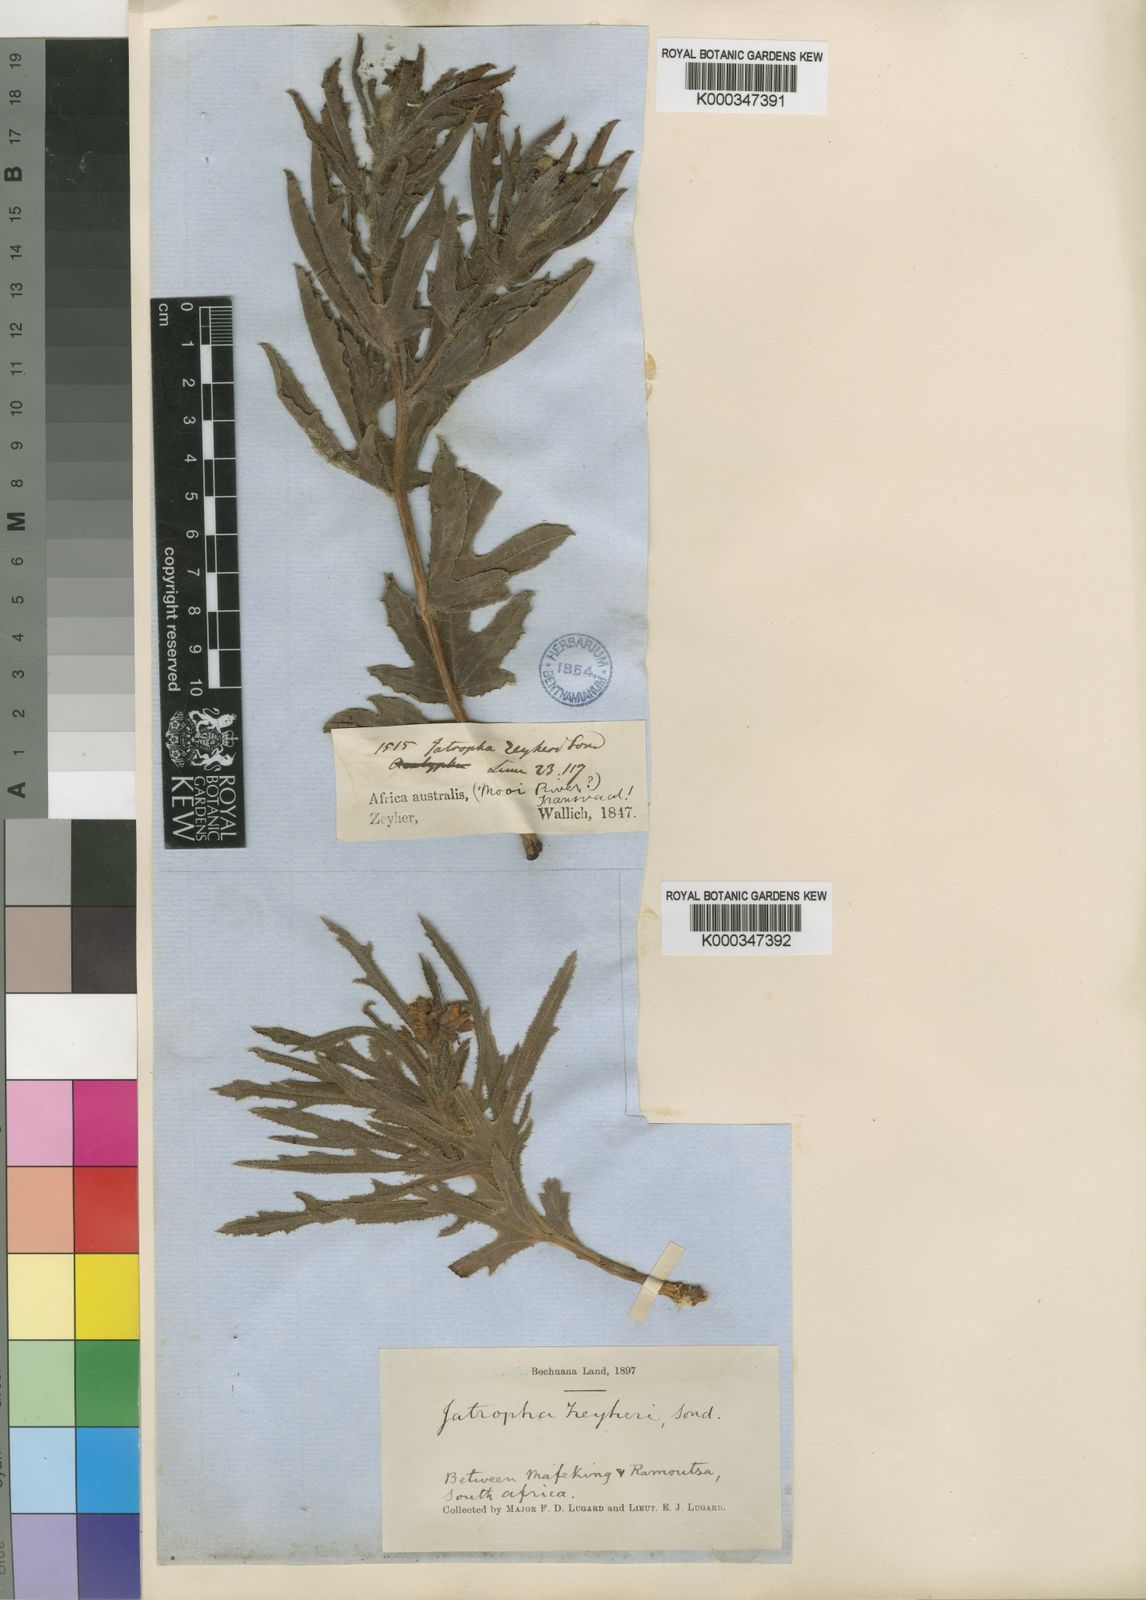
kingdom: Plantae
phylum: Tracheophyta
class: Magnoliopsida
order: Malpighiales
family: Euphorbiaceae
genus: Jatropha
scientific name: Jatropha zeyheri
